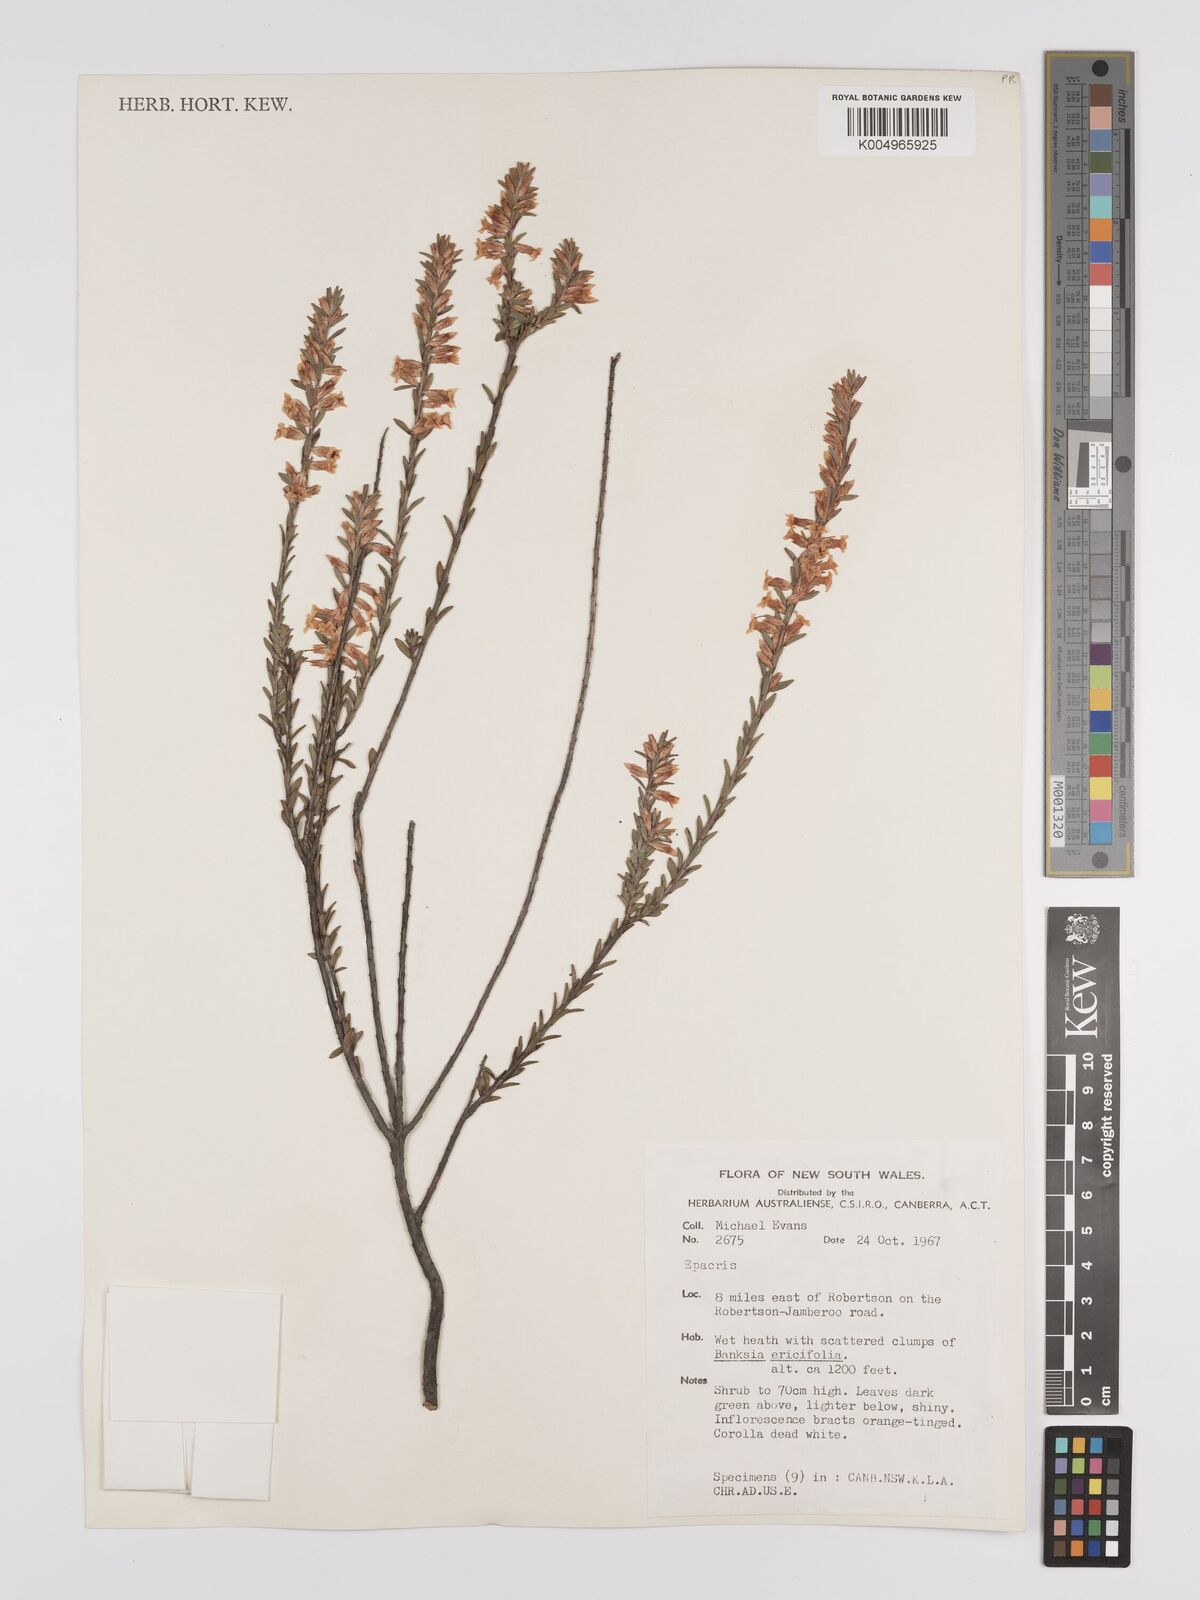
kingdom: Plantae
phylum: Tracheophyta
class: Magnoliopsida
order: Ericales
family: Ericaceae
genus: Epacris
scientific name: Epacris
